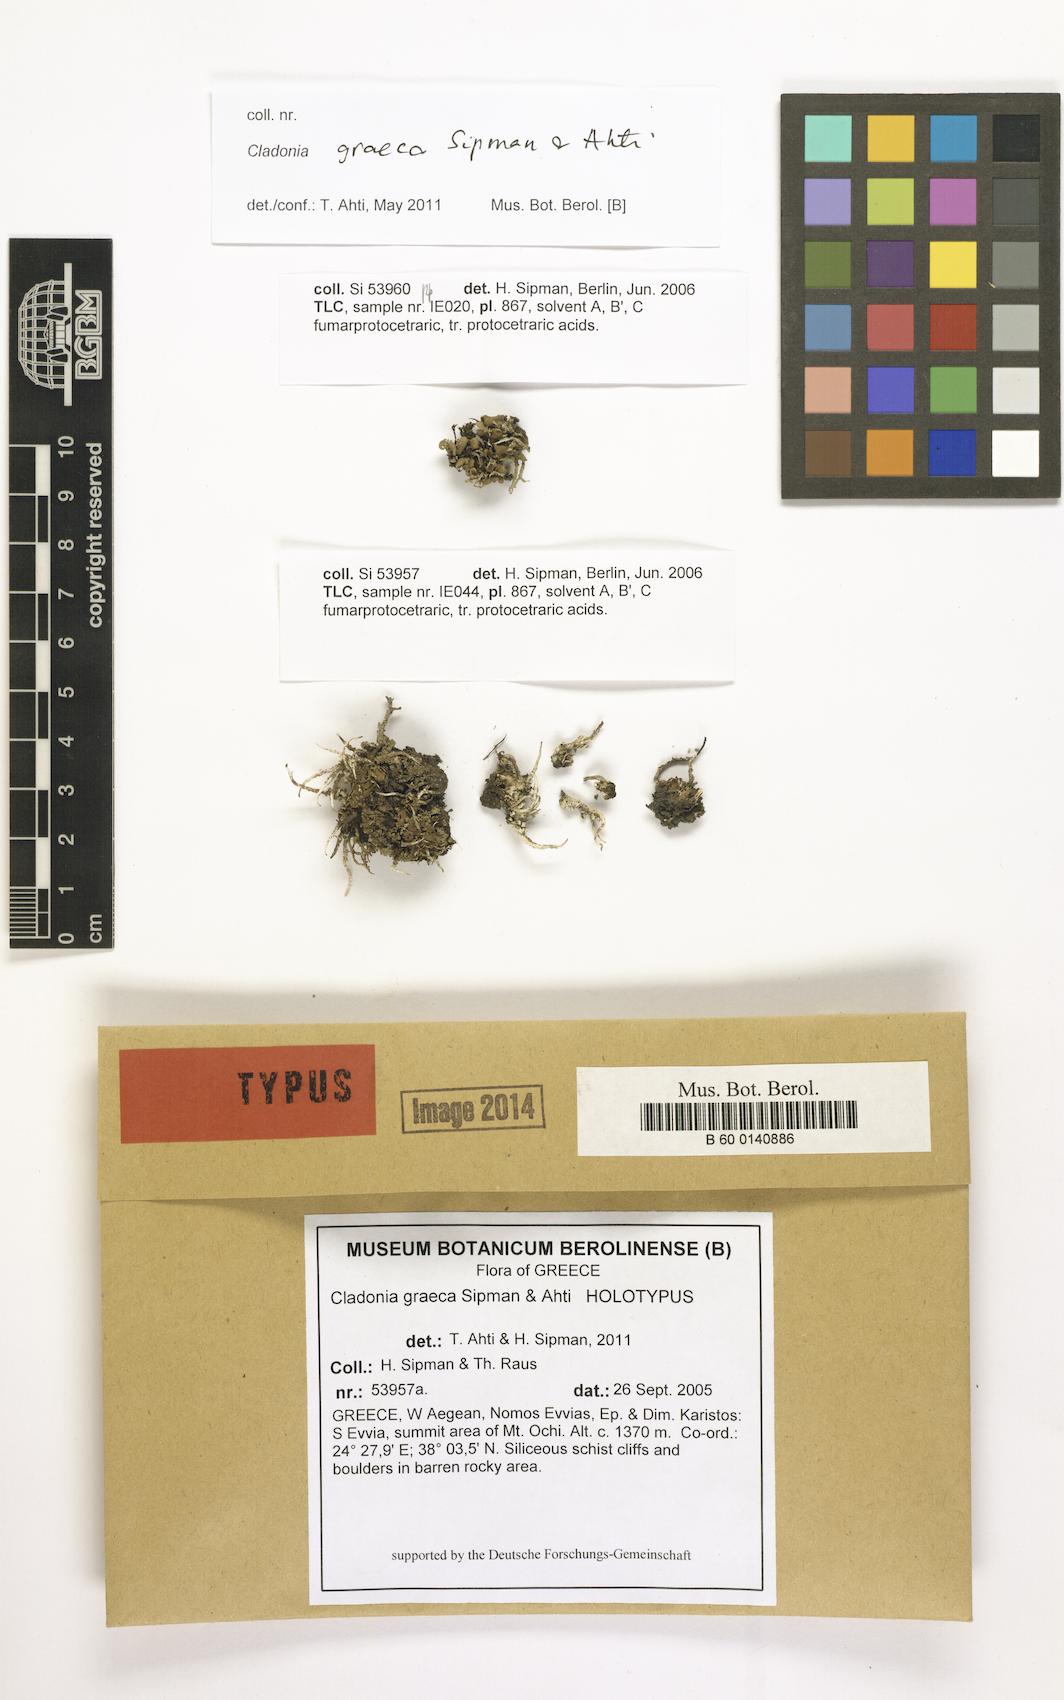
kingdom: Fungi
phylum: Ascomycota
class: Lecanoromycetes
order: Lecanorales
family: Cladoniaceae
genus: Cladonia
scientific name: Cladonia graeca
